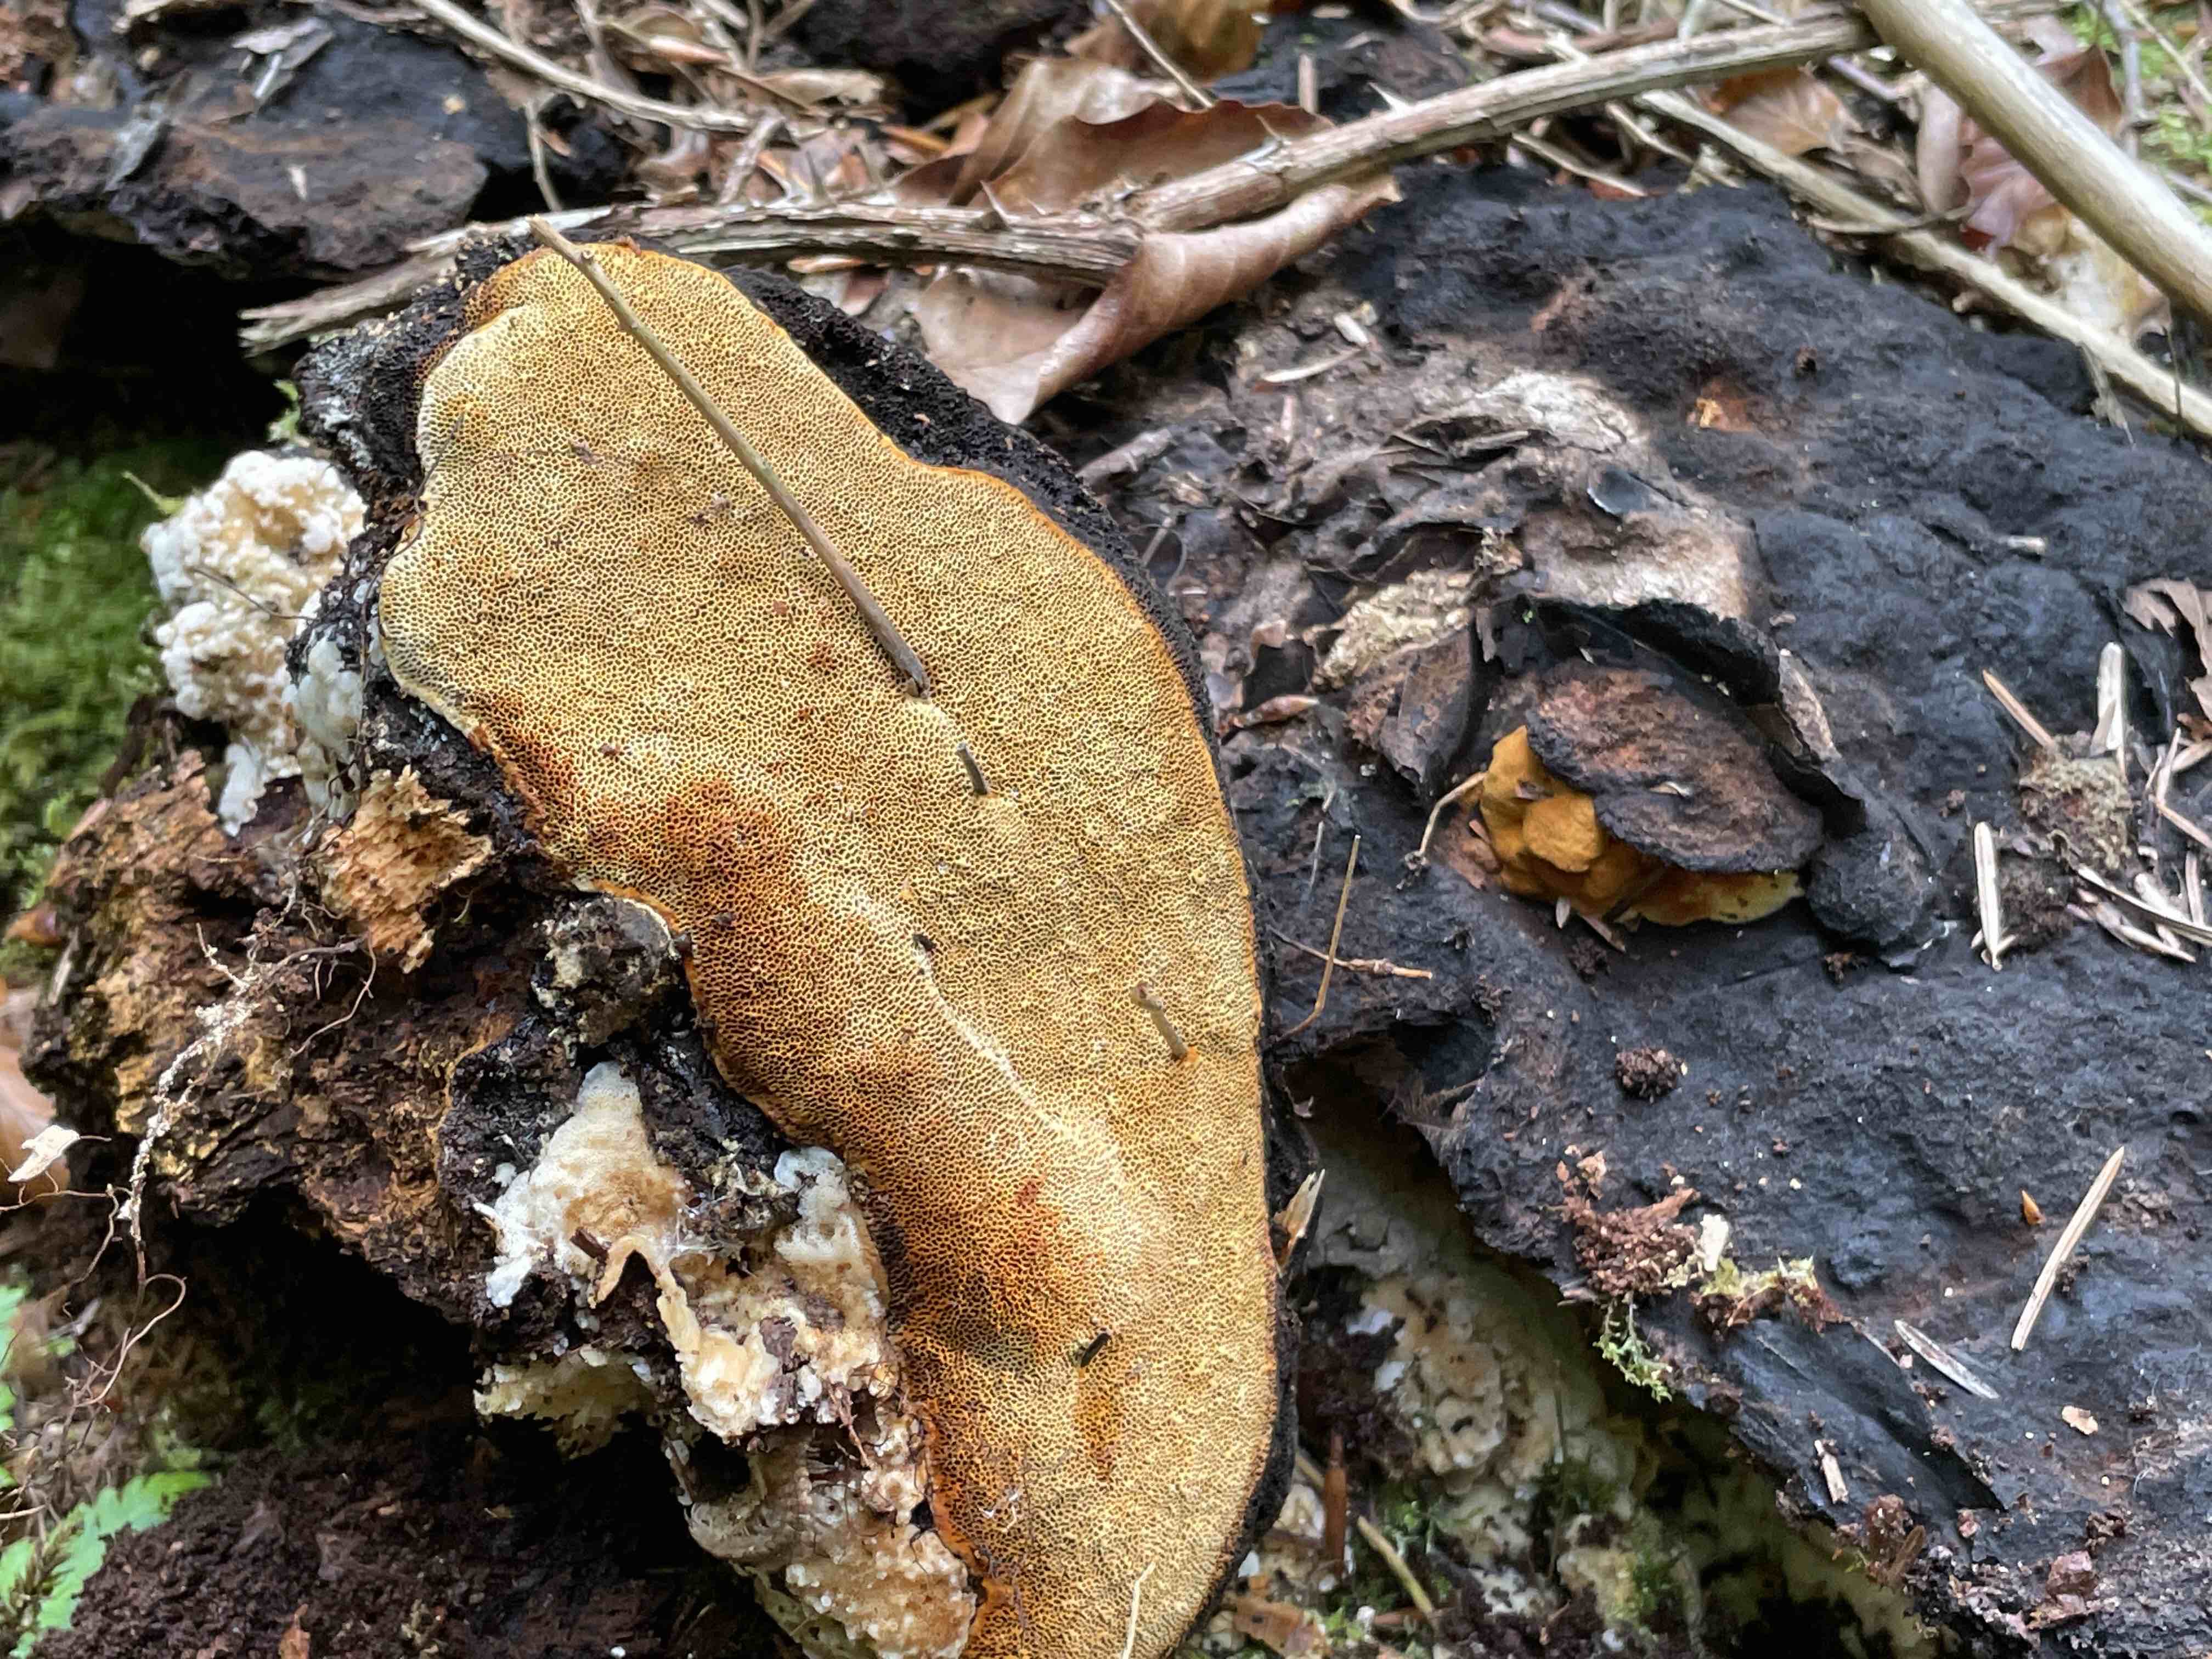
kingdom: Fungi
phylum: Basidiomycota
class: Agaricomycetes
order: Gloeophyllales
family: Gloeophyllaceae
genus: Gloeophyllum
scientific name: Gloeophyllum odoratum
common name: duftende korkhat
